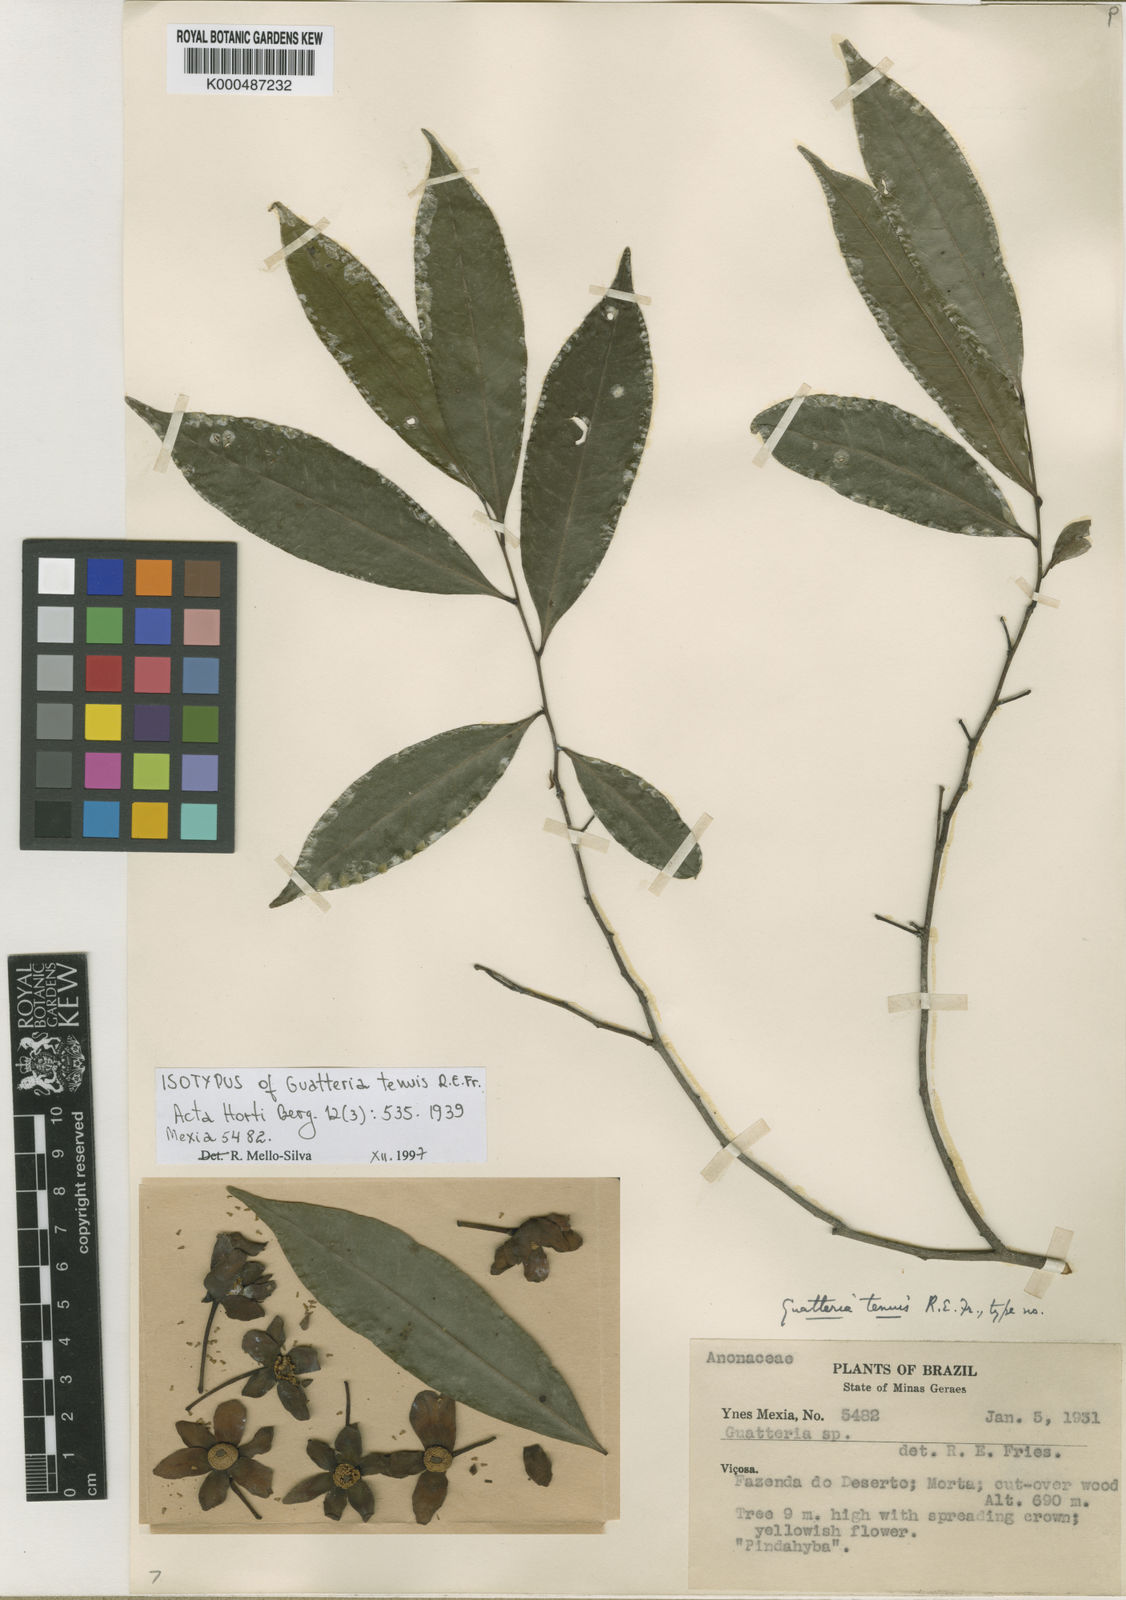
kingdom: Plantae
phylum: Tracheophyta
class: Magnoliopsida
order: Magnoliales
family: Annonaceae
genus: Guatteria
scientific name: Guatteria australis
